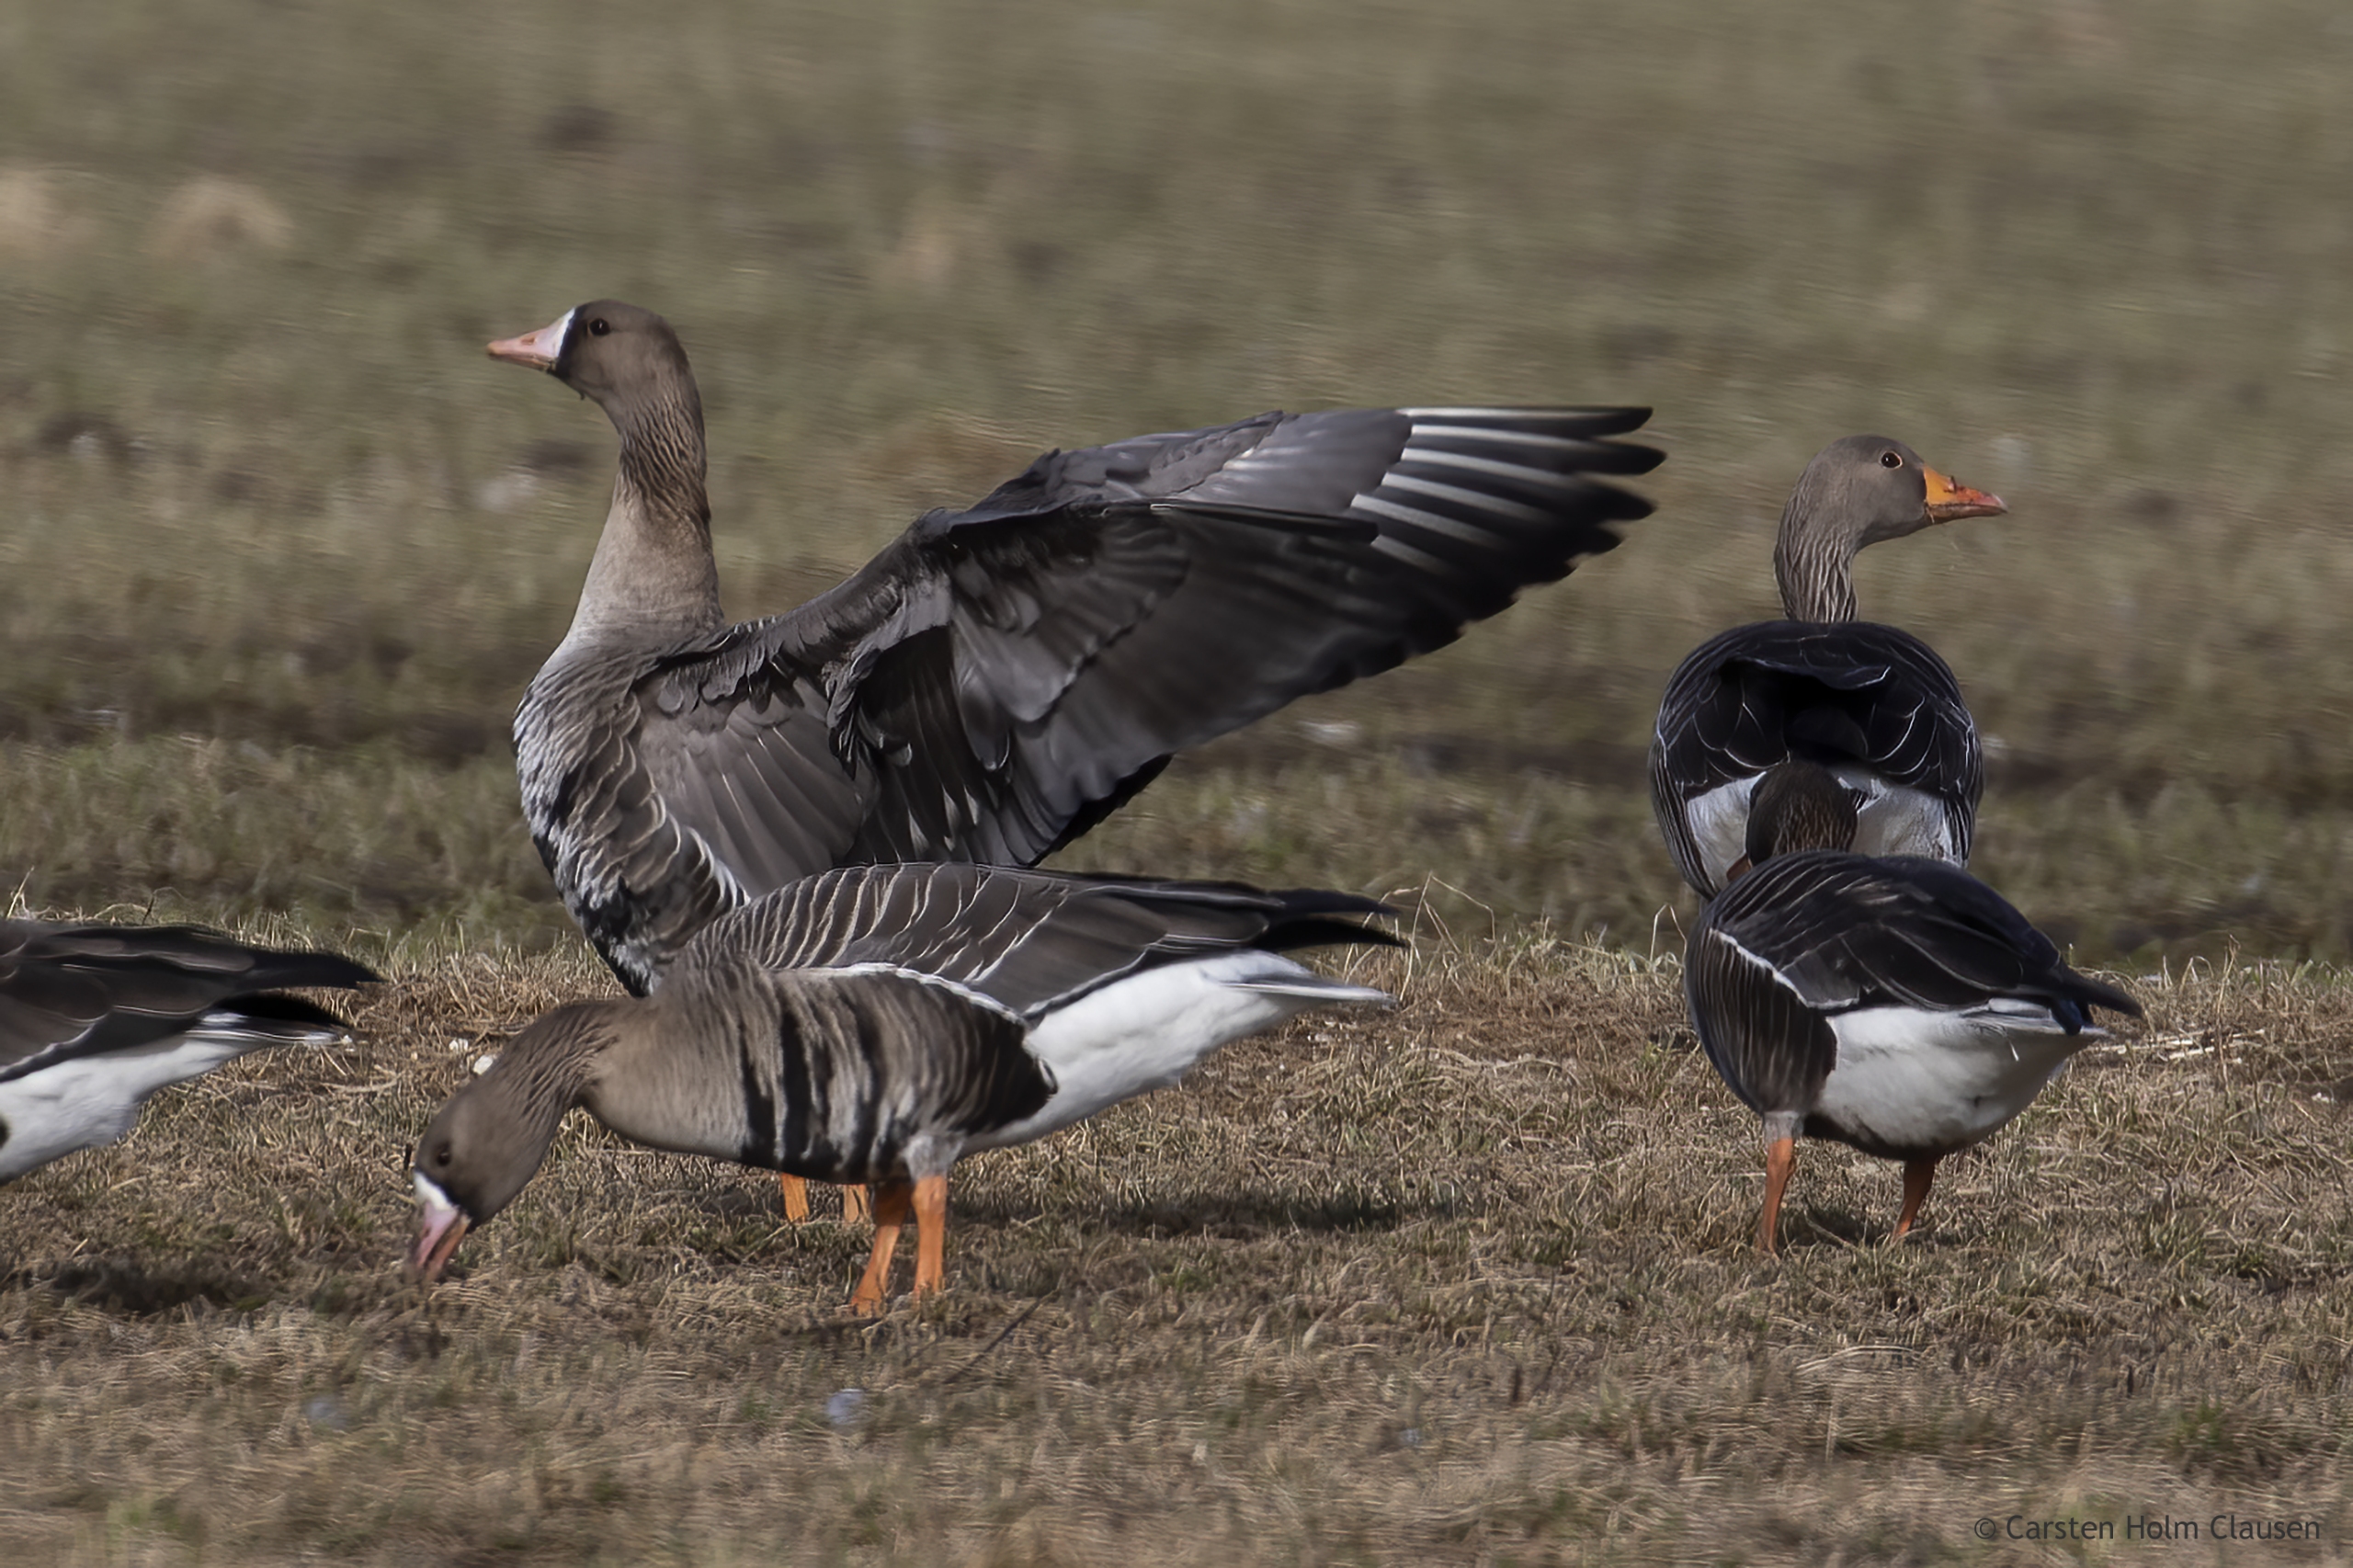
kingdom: Animalia
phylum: Chordata
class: Aves
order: Anseriformes
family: Anatidae
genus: Anser
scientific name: Anser albifrons
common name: Blisgås
